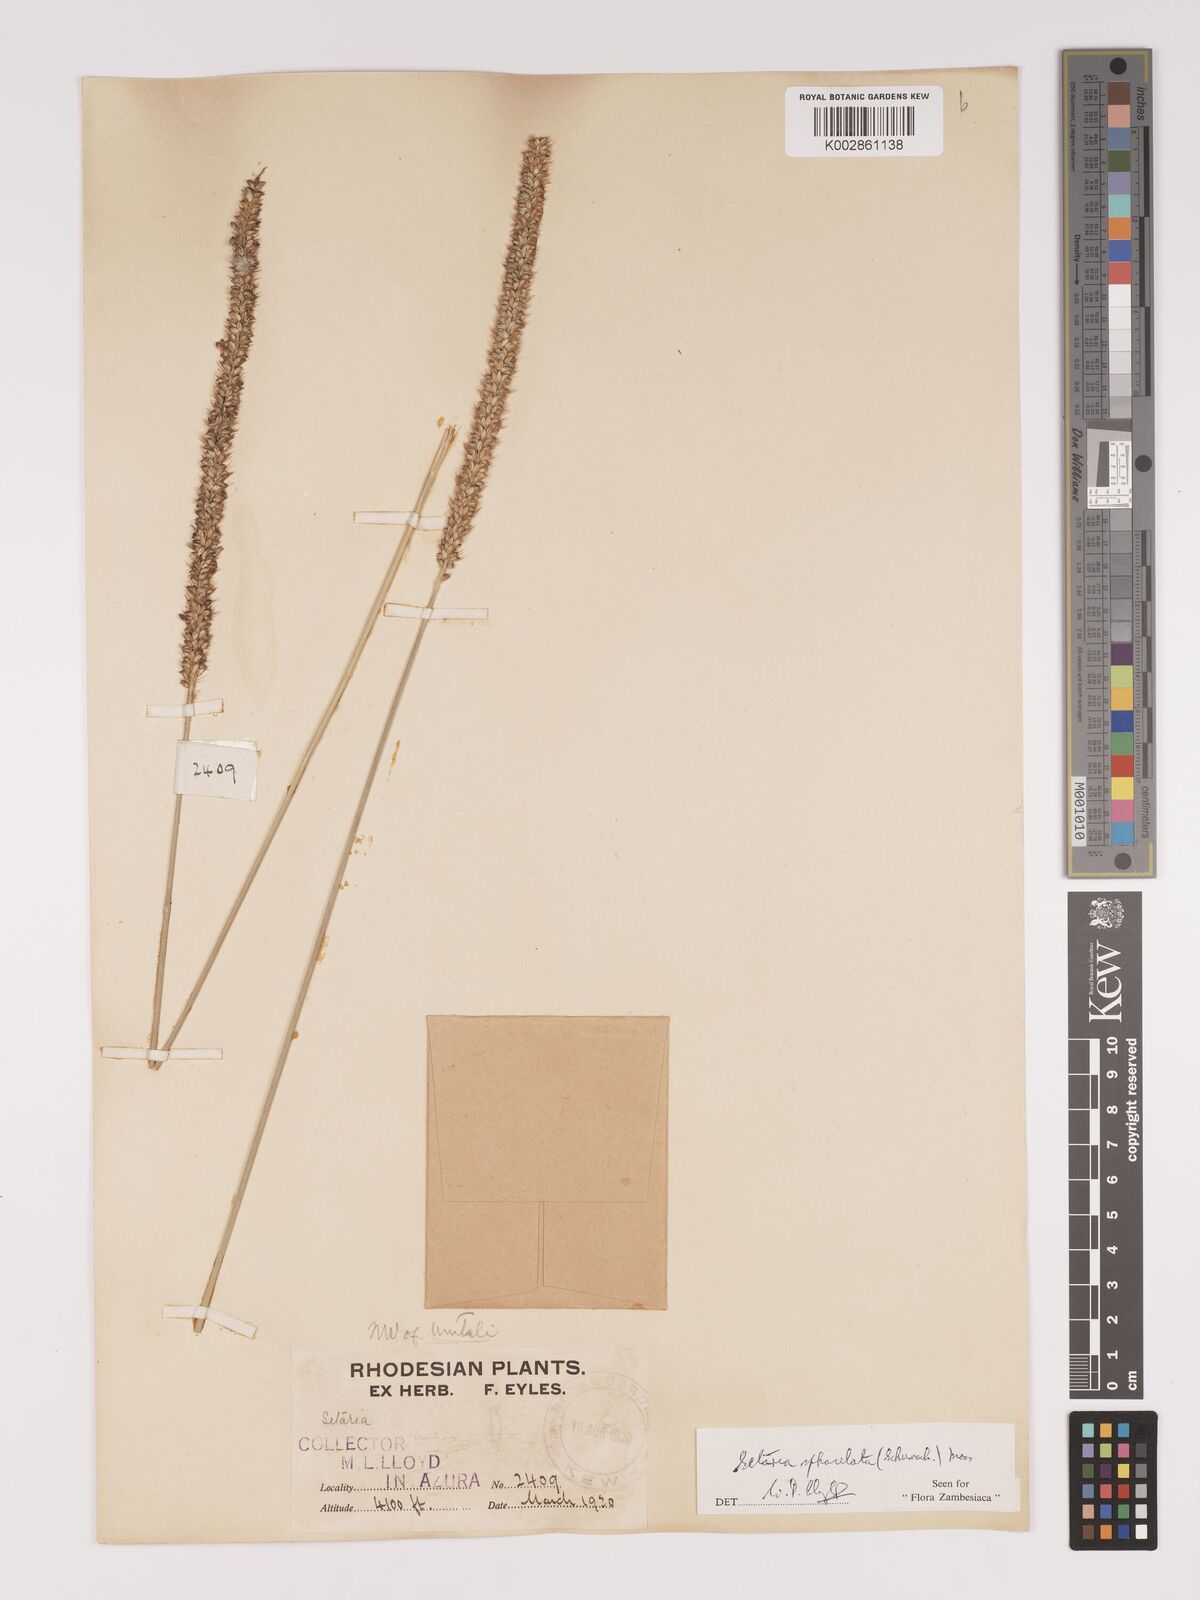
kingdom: Plantae
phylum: Tracheophyta
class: Liliopsida
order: Poales
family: Poaceae
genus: Setaria
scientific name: Setaria sphacelata
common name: African bristlegrass
